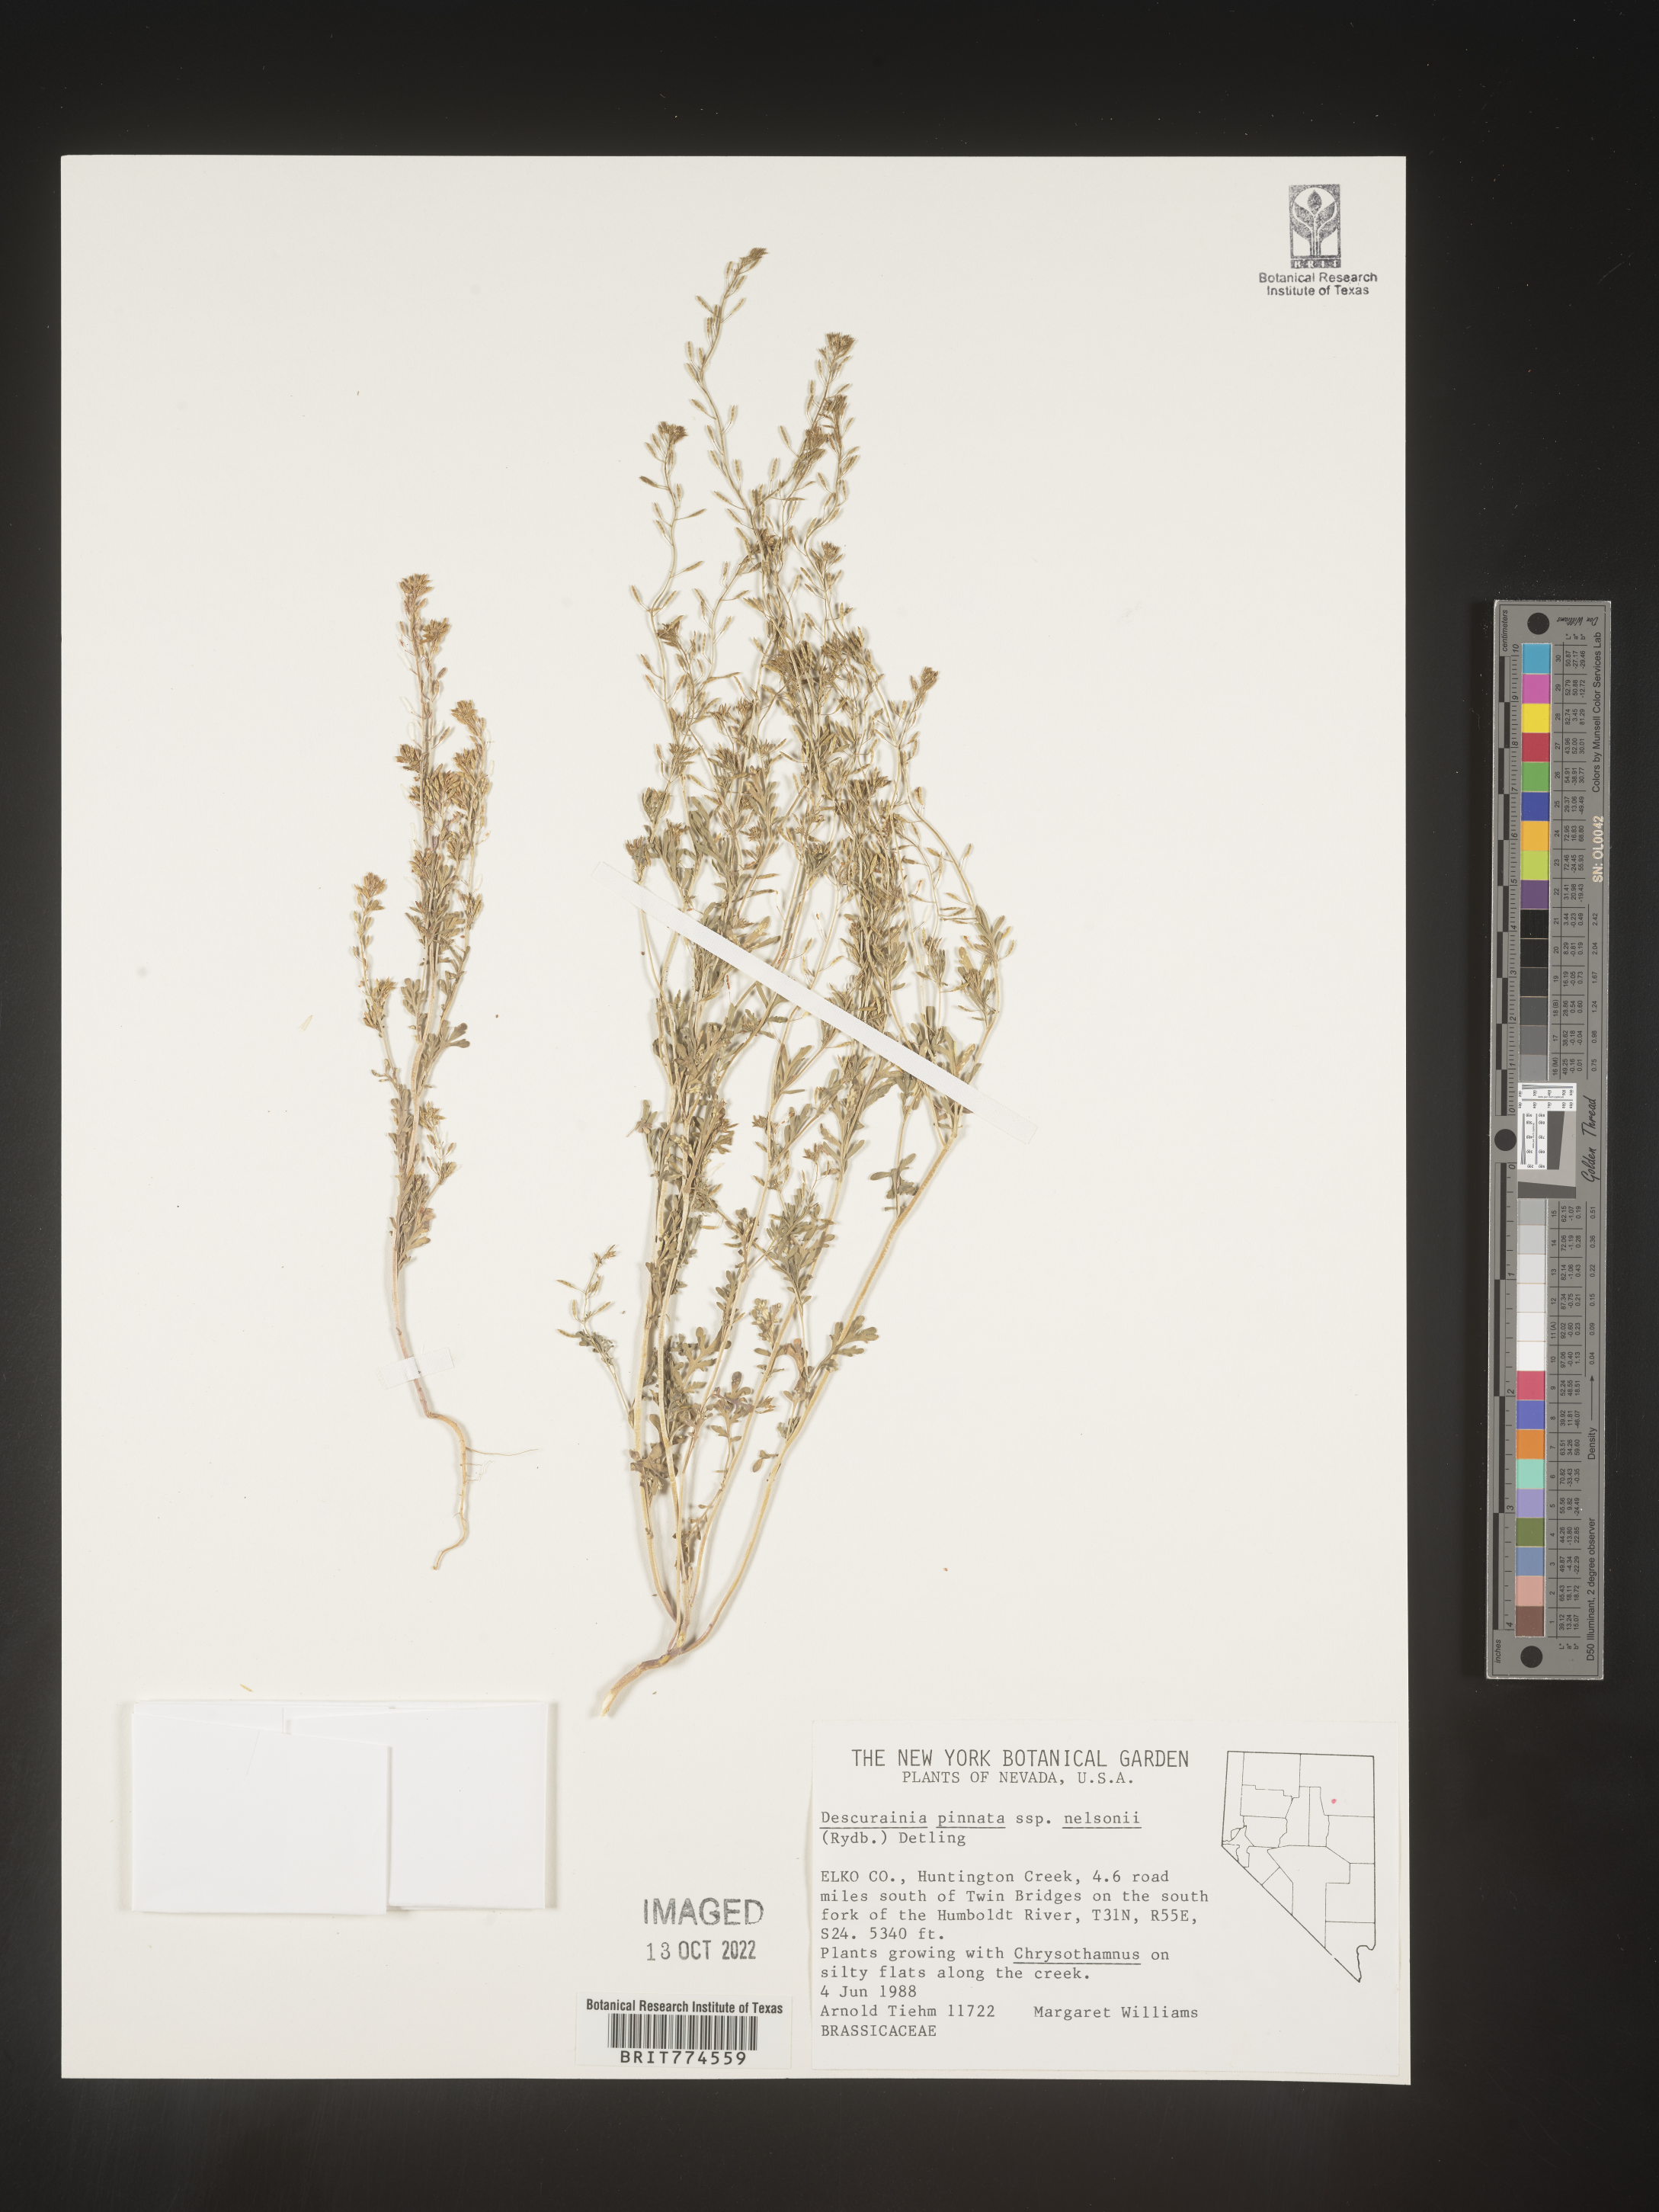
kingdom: Plantae
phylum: Tracheophyta
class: Magnoliopsida
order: Brassicales
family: Brassicaceae
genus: Descurainia
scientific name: Descurainia pinnata
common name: Western tansy mustard
